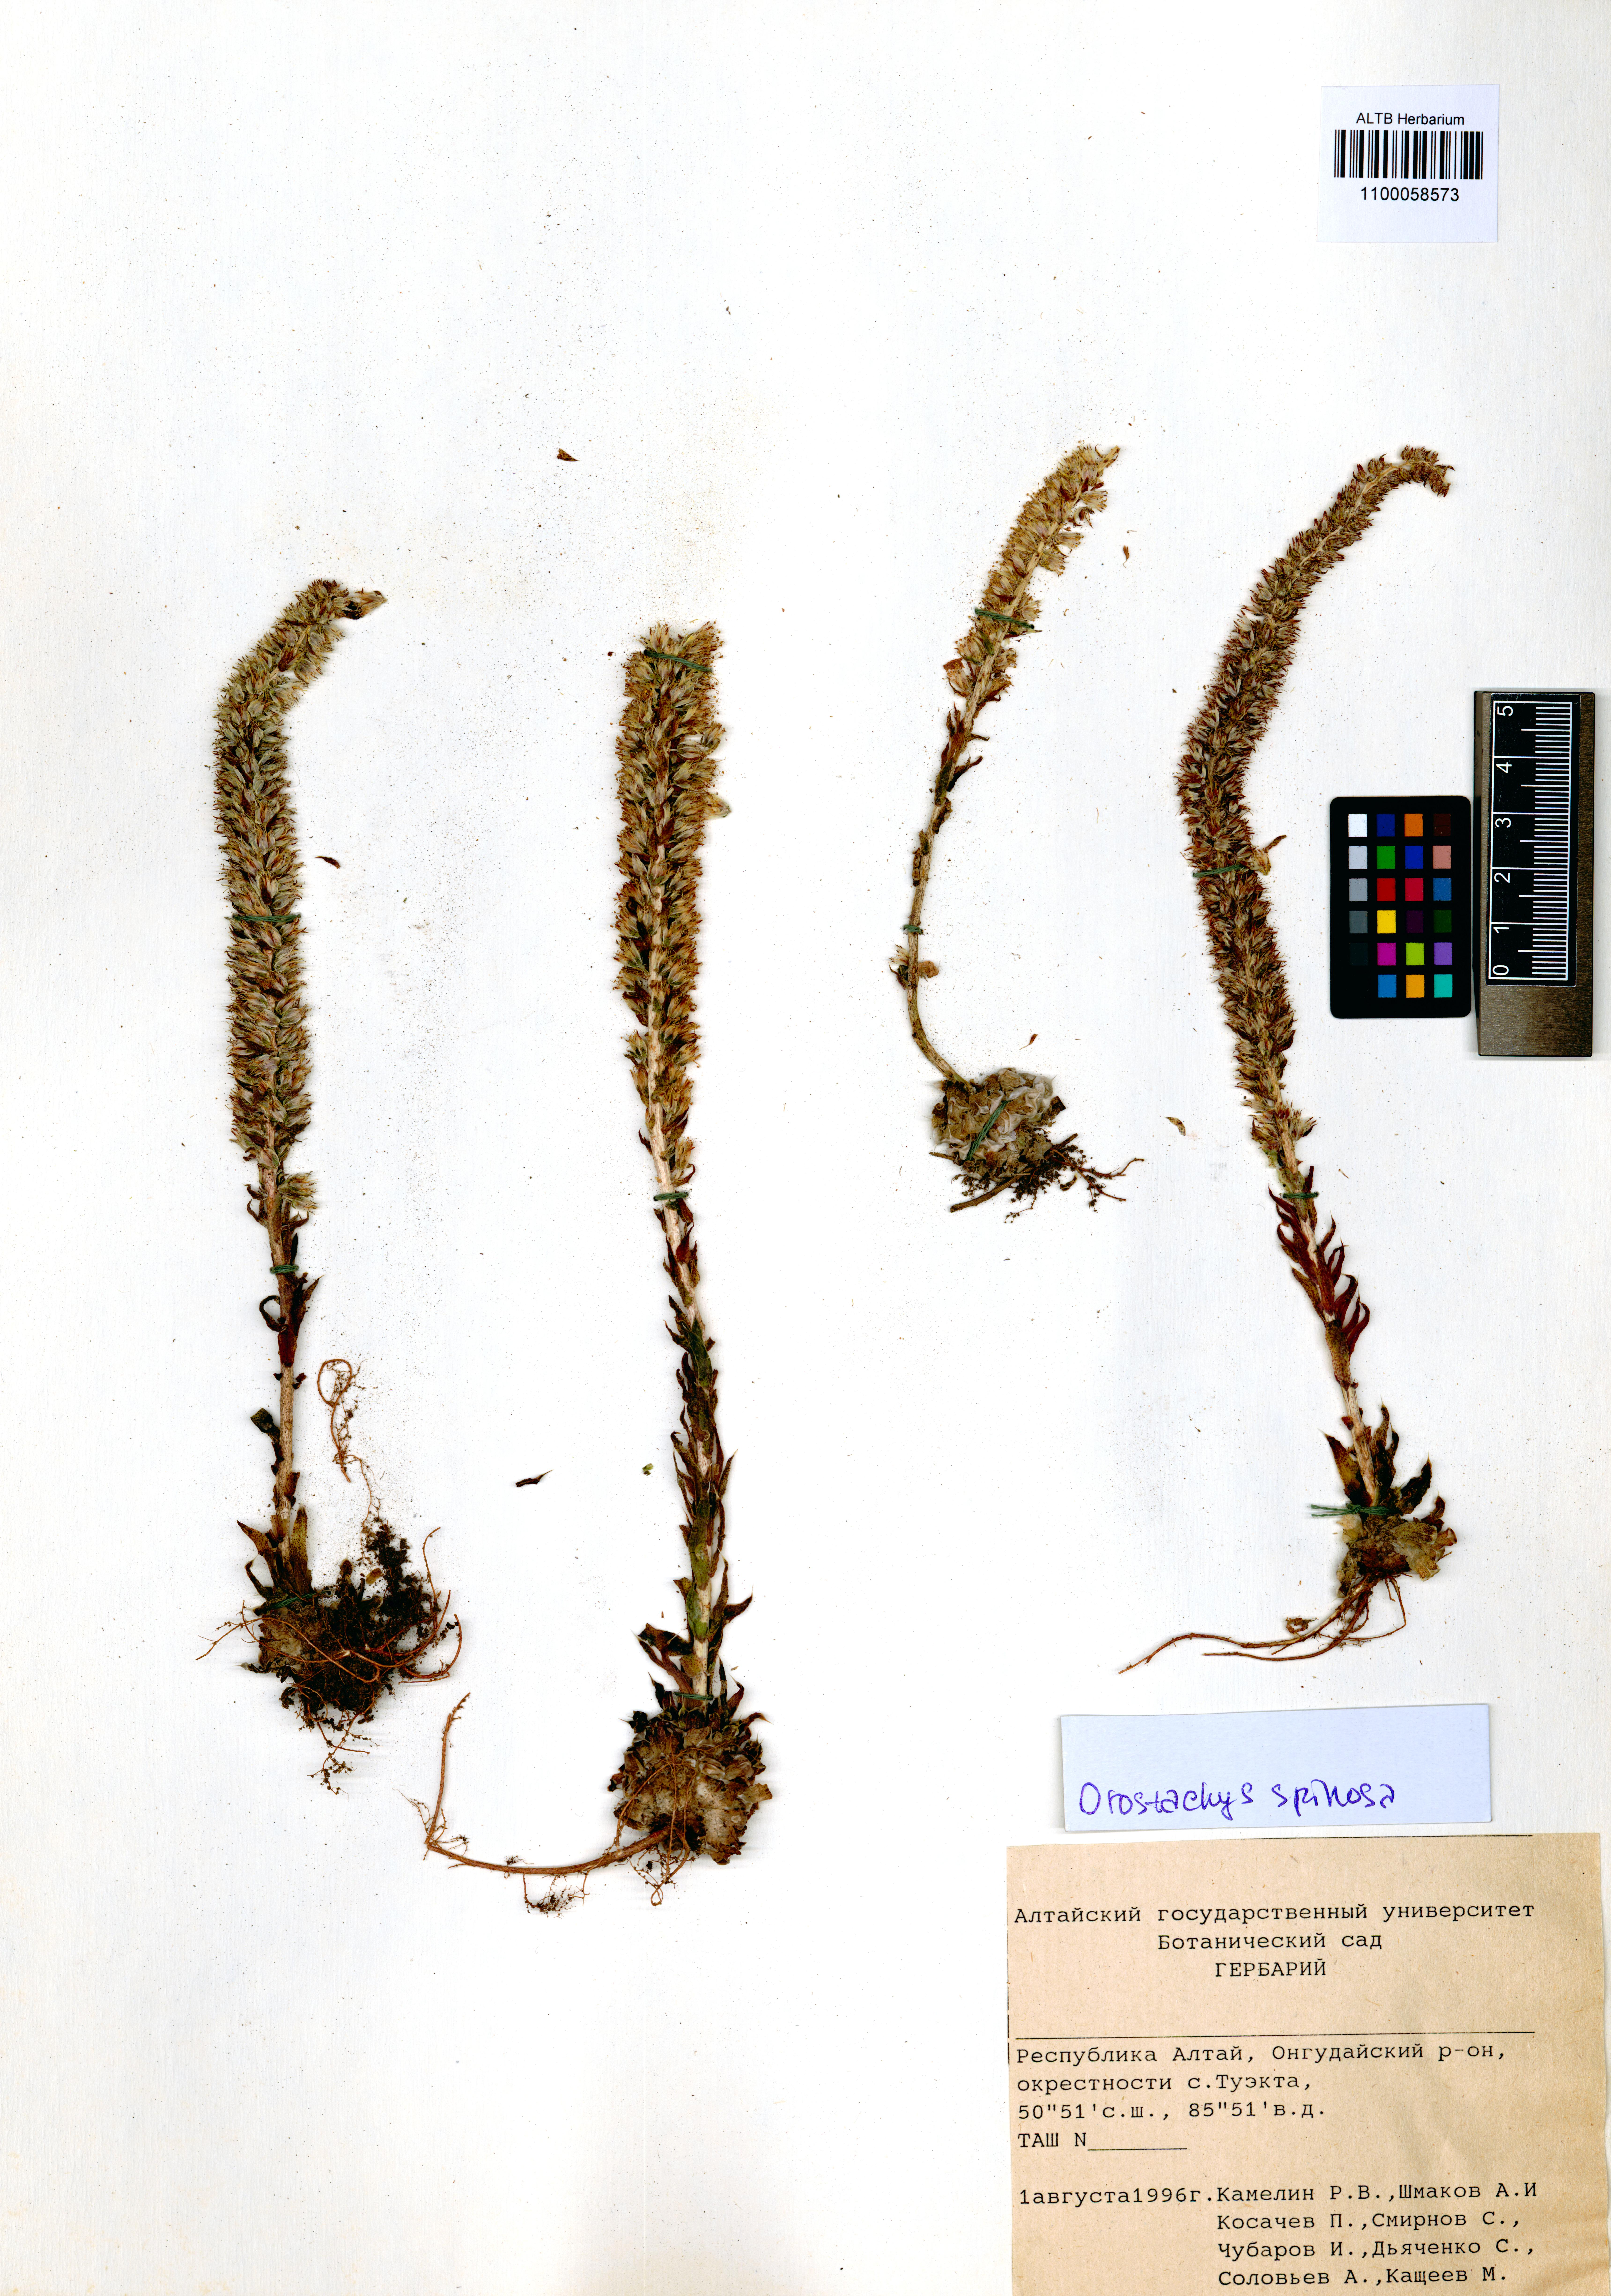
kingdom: Plantae
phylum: Tracheophyta
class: Magnoliopsida
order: Saxifragales
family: Crassulaceae
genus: Orostachys
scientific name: Orostachys spinosa
